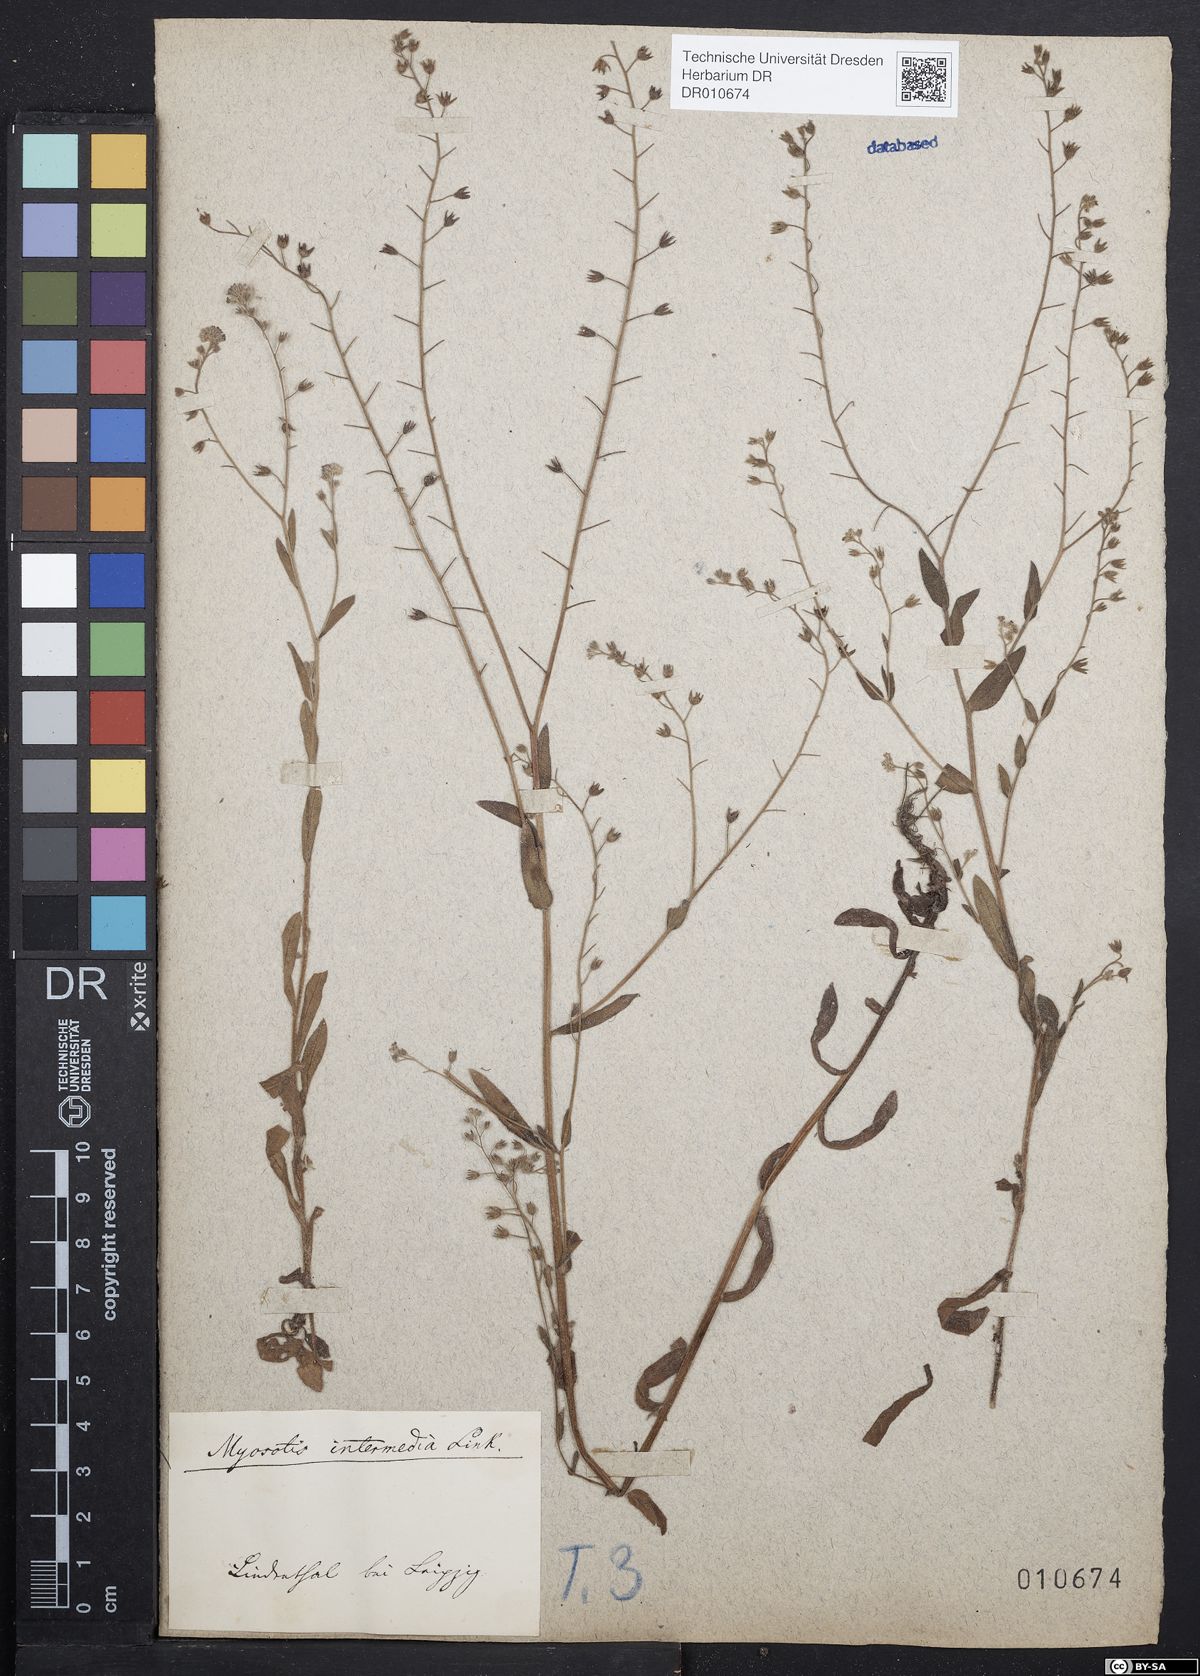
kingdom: Plantae
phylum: Tracheophyta
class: Magnoliopsida
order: Boraginales
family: Boraginaceae
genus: Myosotis
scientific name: Myosotis arvensis
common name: Field forget-me-not
